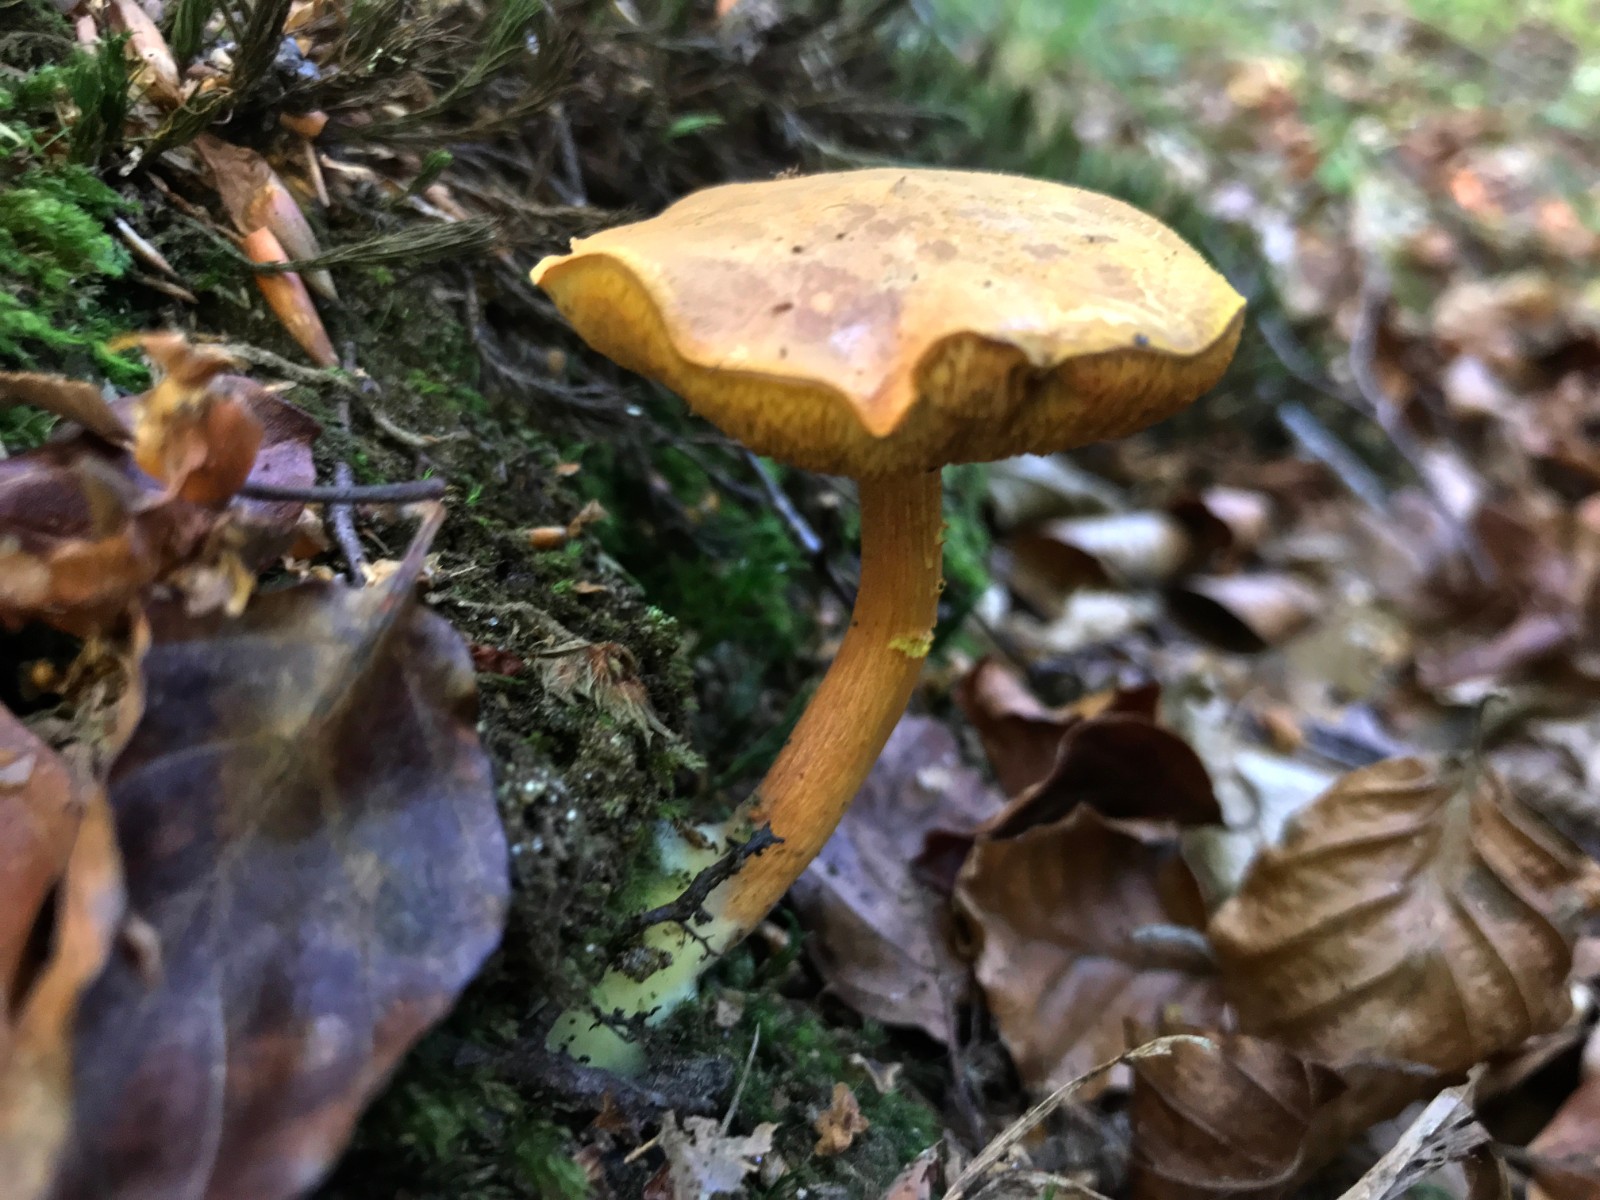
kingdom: Fungi
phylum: Basidiomycota
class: Agaricomycetes
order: Boletales
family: Boletaceae
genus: Chalciporus
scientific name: Chalciporus piperatus
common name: peberrørhat
